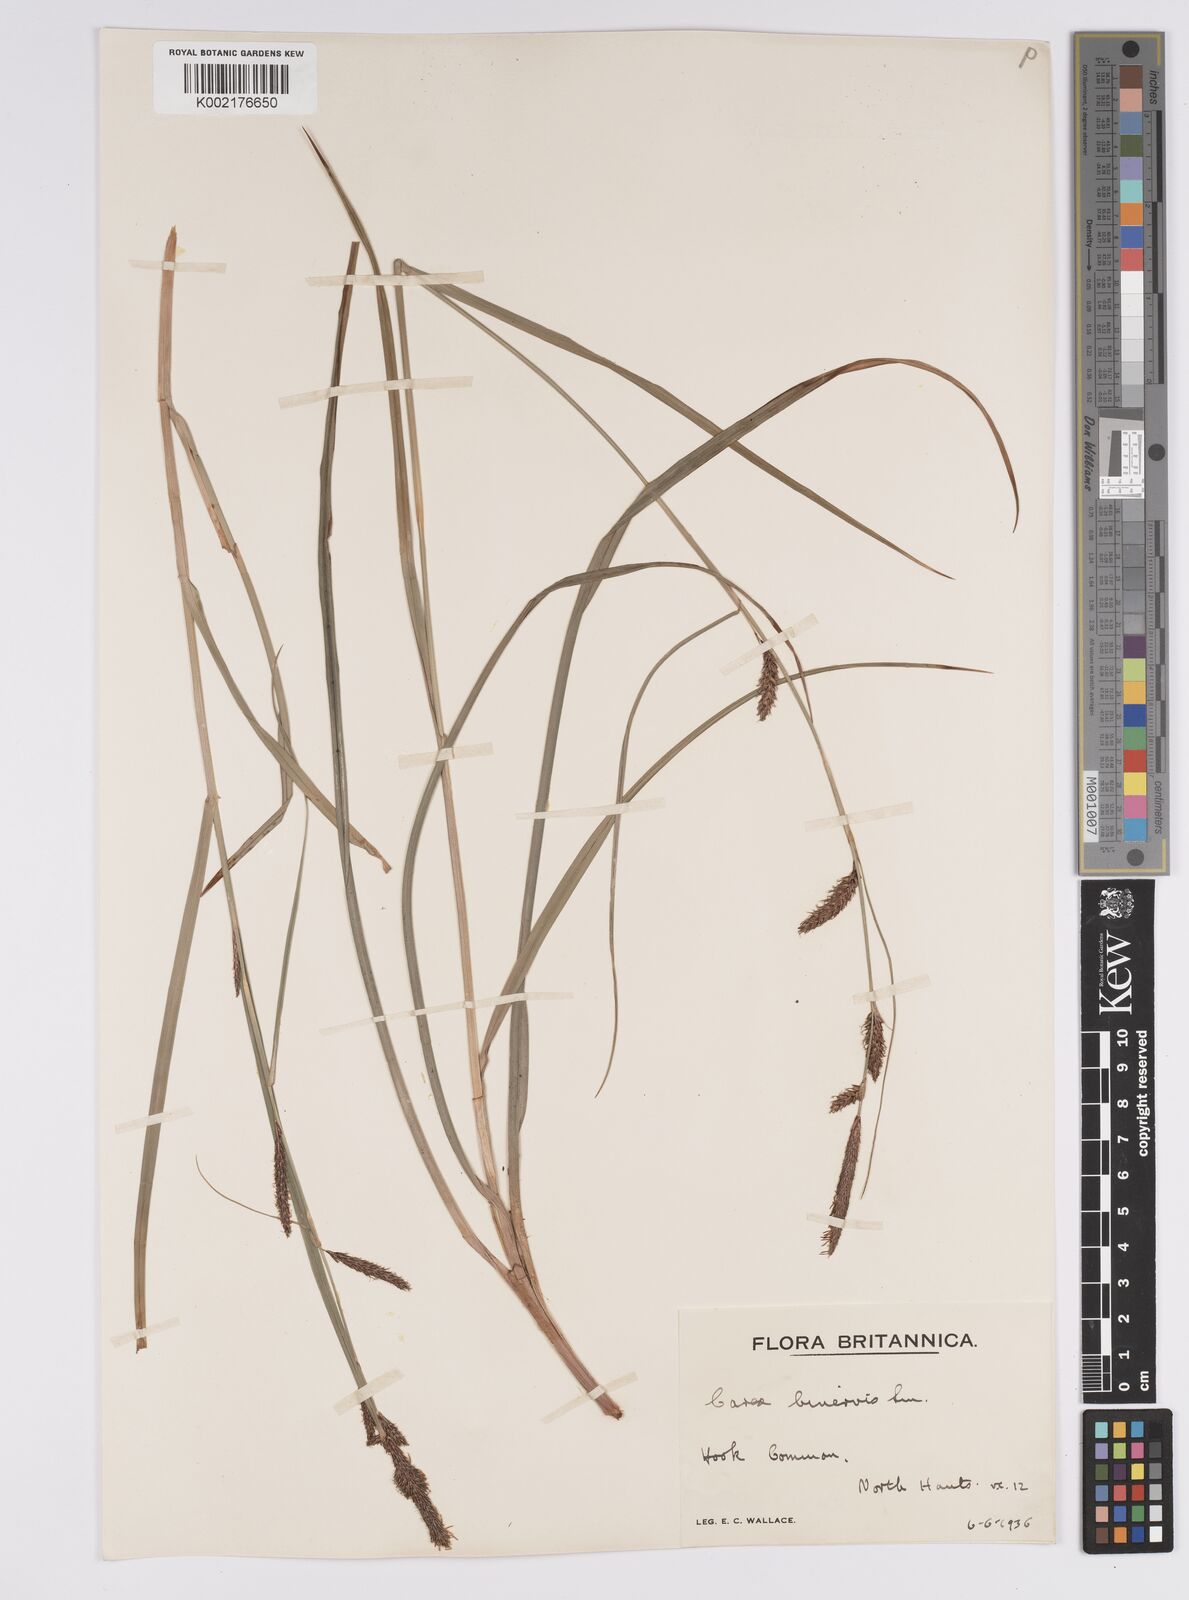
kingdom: Plantae
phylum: Tracheophyta
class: Liliopsida
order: Poales
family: Cyperaceae
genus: Carex
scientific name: Carex binervis
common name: Green-ribbed sedge
